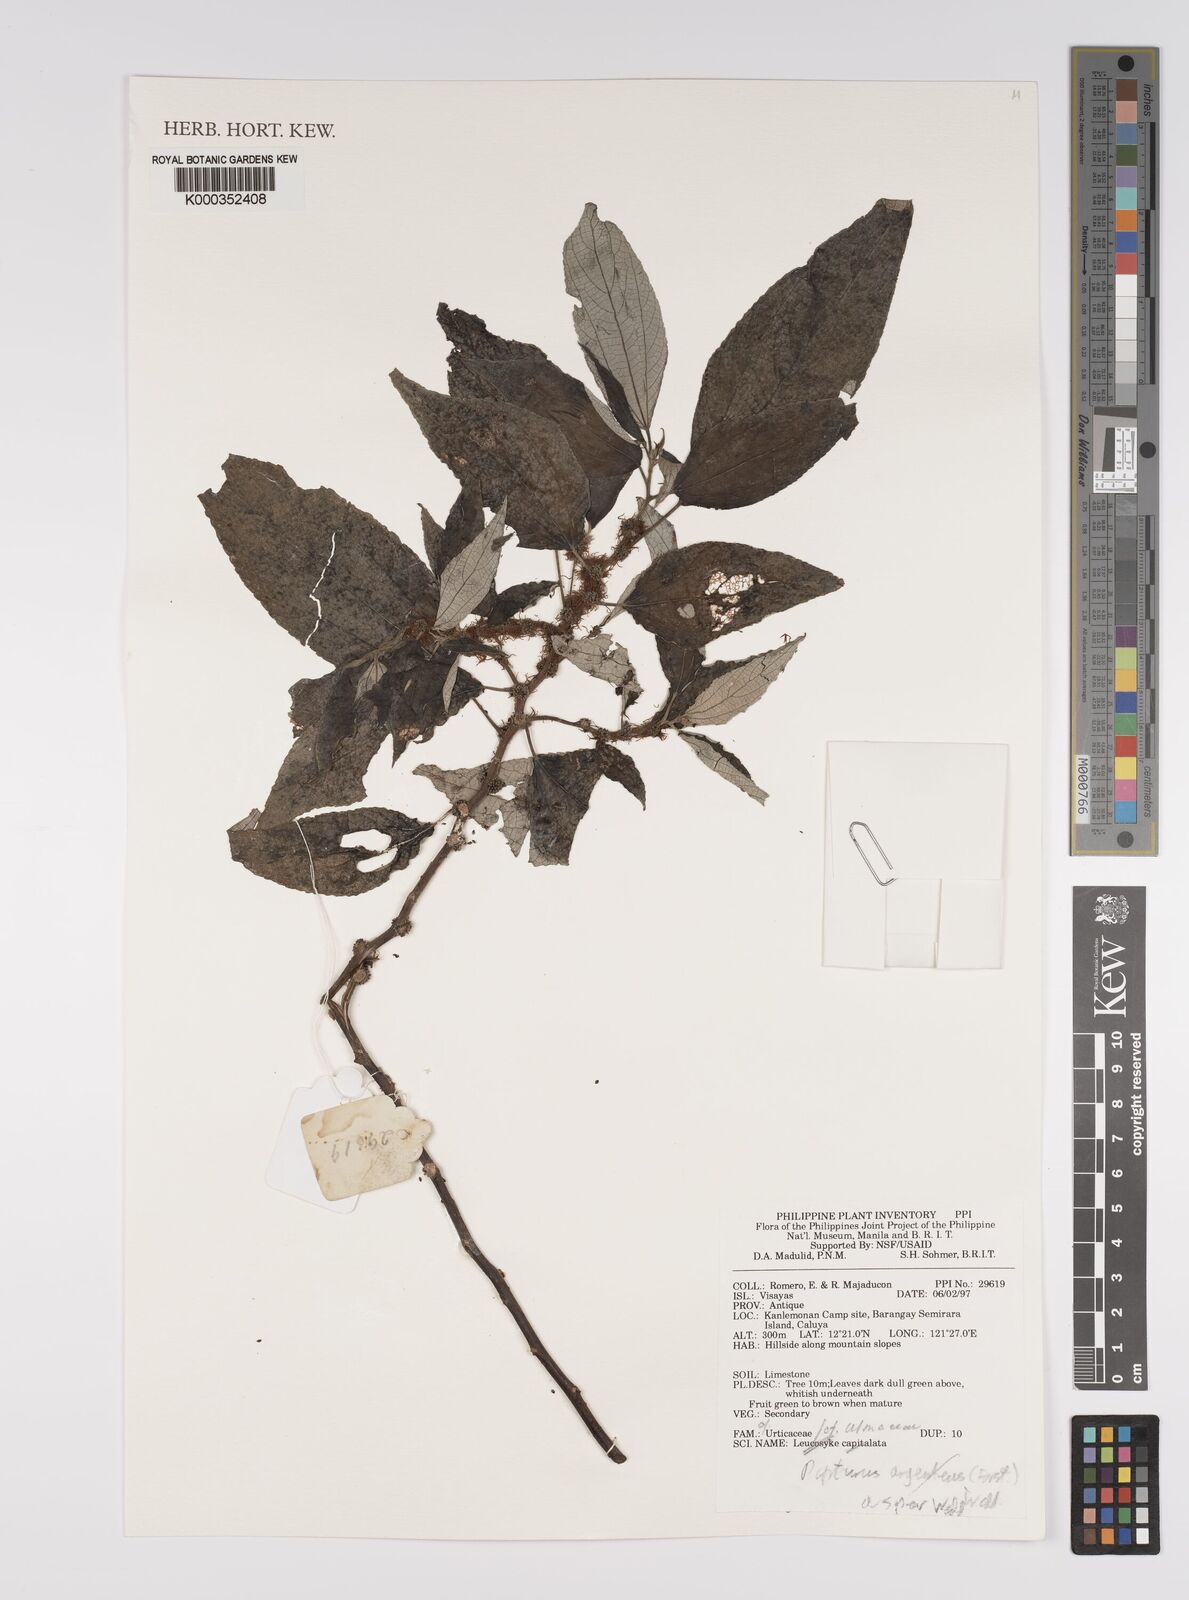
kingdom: Plantae
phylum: Tracheophyta
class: Magnoliopsida
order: Rosales
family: Urticaceae
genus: Pipturus
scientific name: Pipturus argenteus
